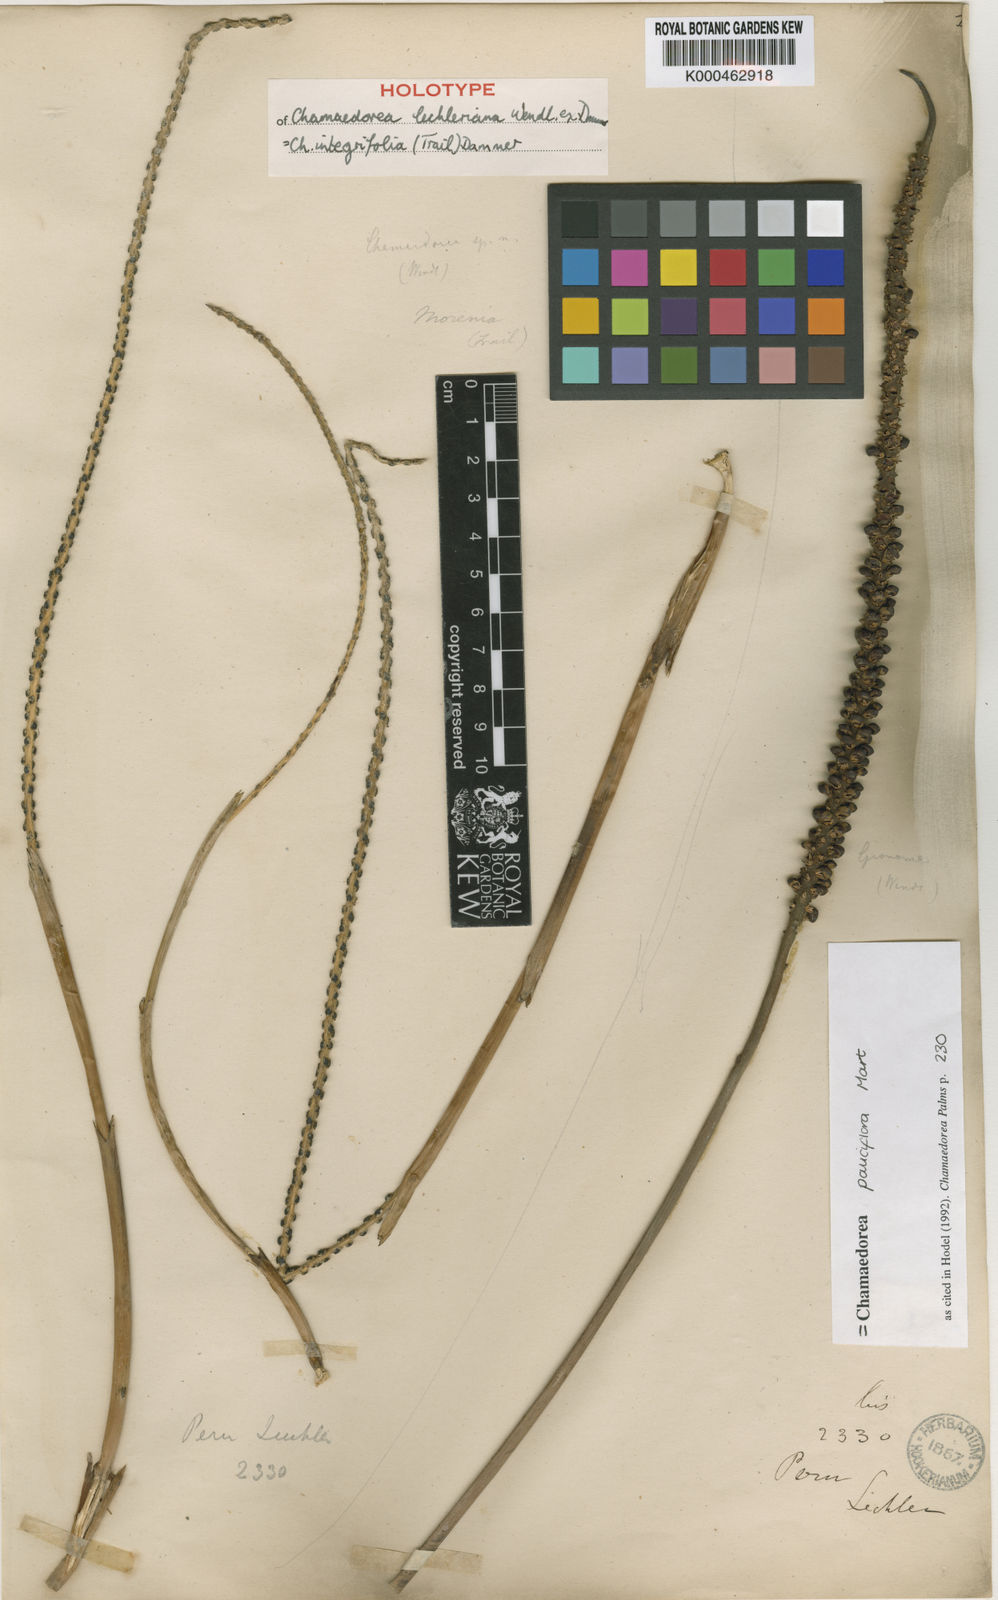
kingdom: Plantae
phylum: Tracheophyta
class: Liliopsida
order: Arecales
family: Arecaceae
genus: Chamaedorea
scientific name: Chamaedorea pauciflora
